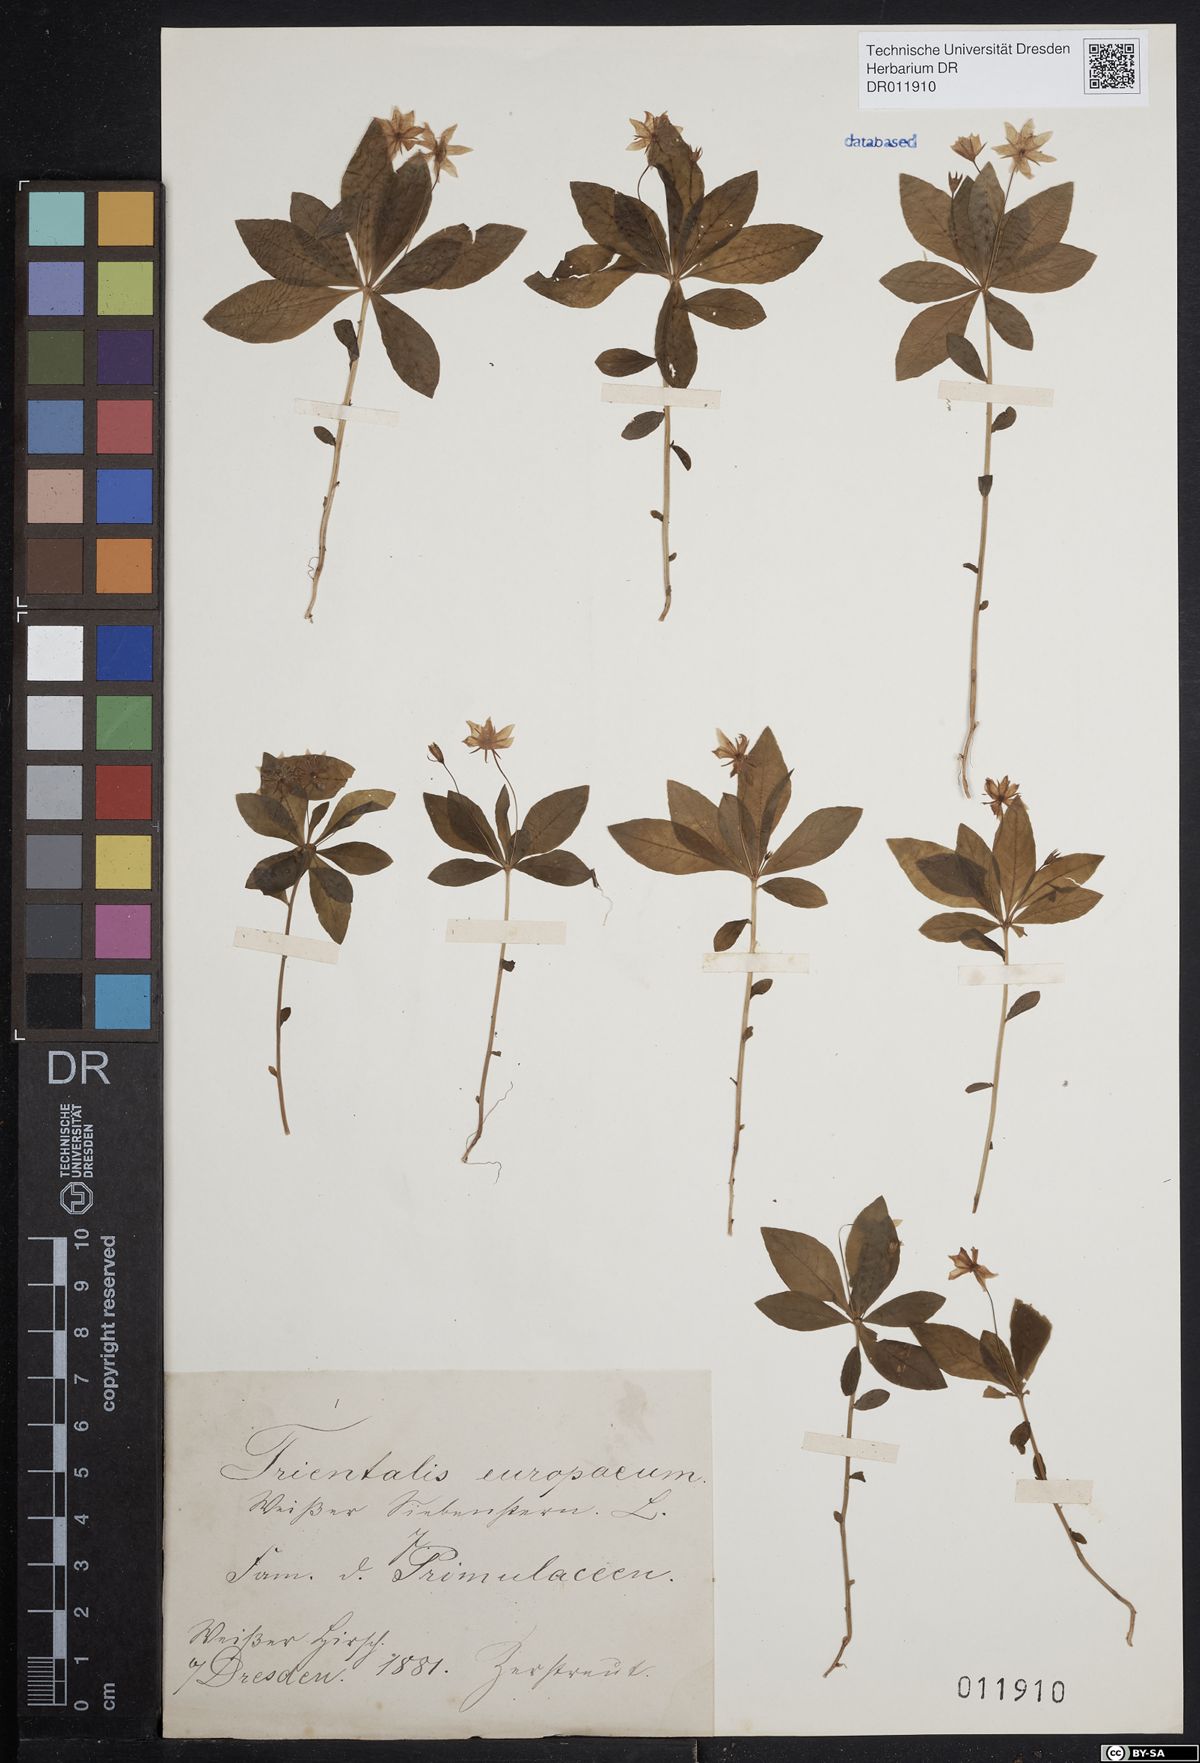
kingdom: Plantae
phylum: Tracheophyta
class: Magnoliopsida
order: Ericales
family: Primulaceae
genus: Lysimachia
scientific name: Lysimachia europaea
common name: Arctic starflower
